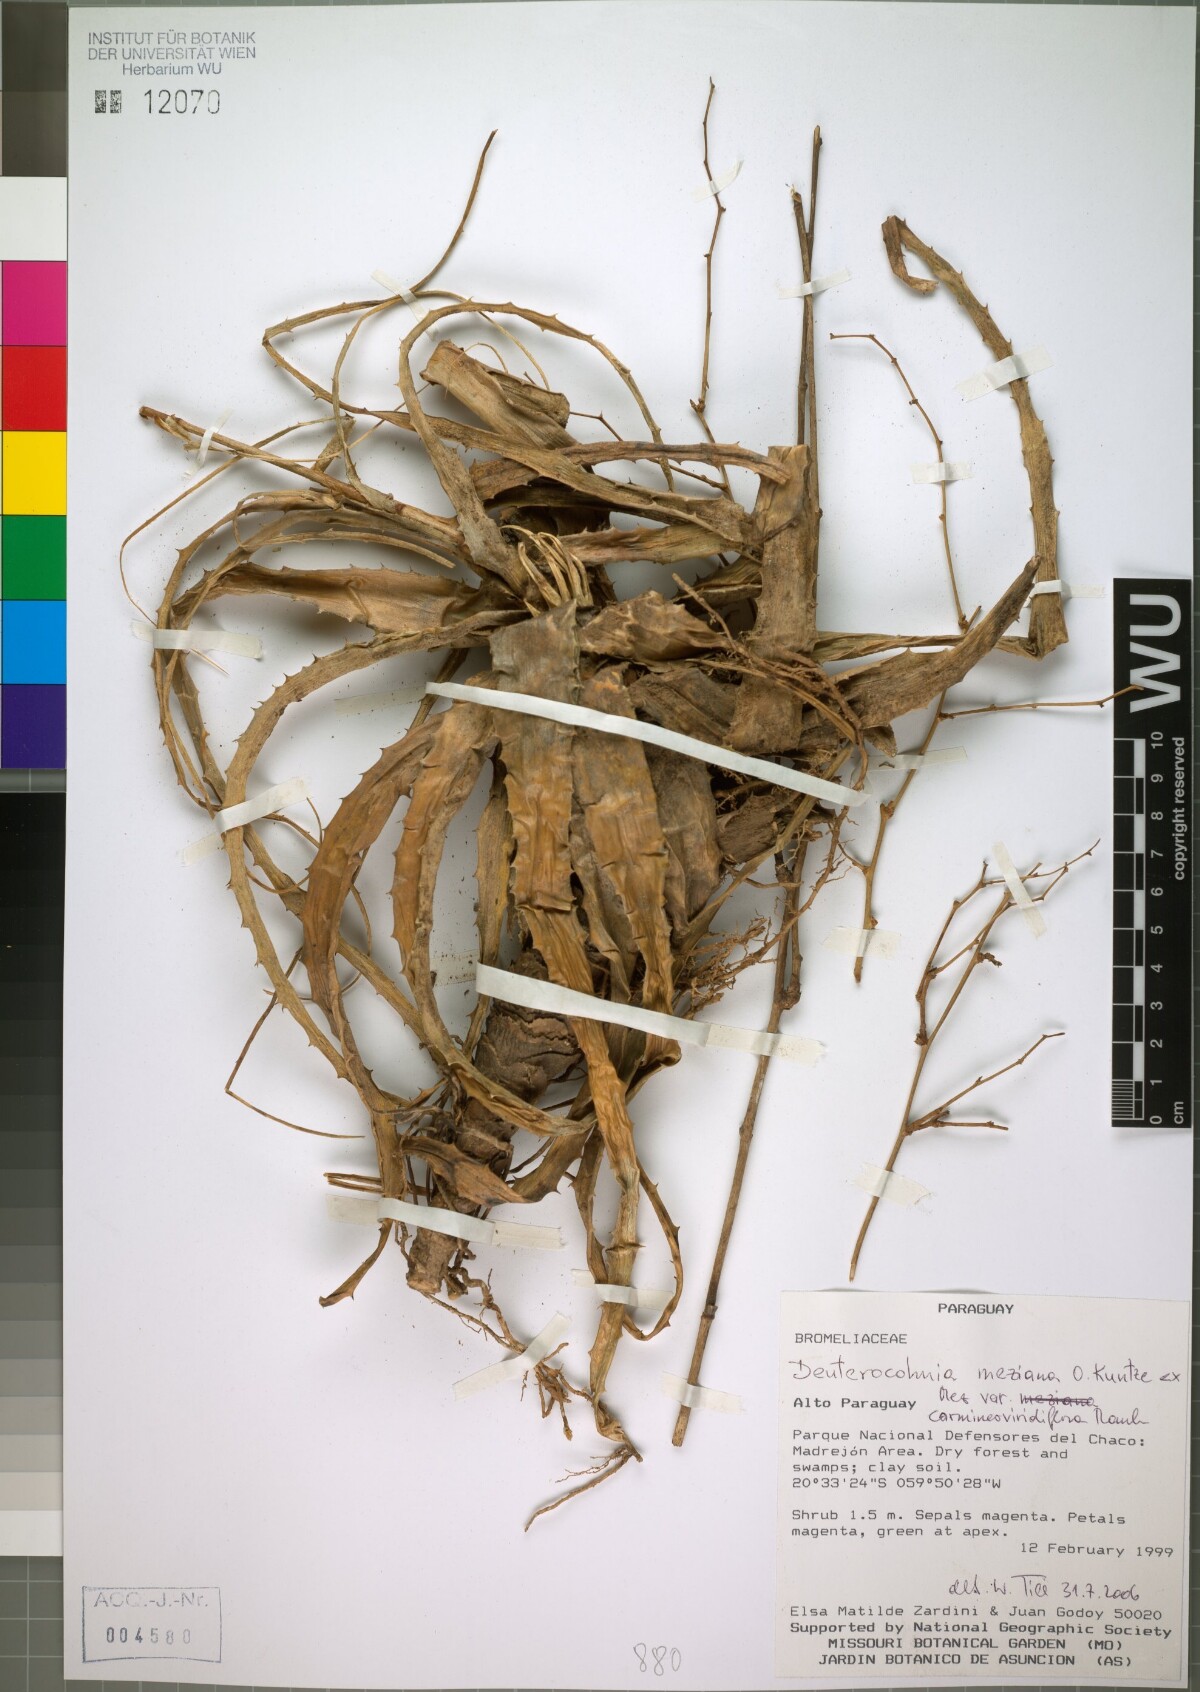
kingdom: Plantae
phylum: Tracheophyta
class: Liliopsida
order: Poales
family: Bromeliaceae
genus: Deuterocohnia
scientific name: Deuterocohnia meziana
